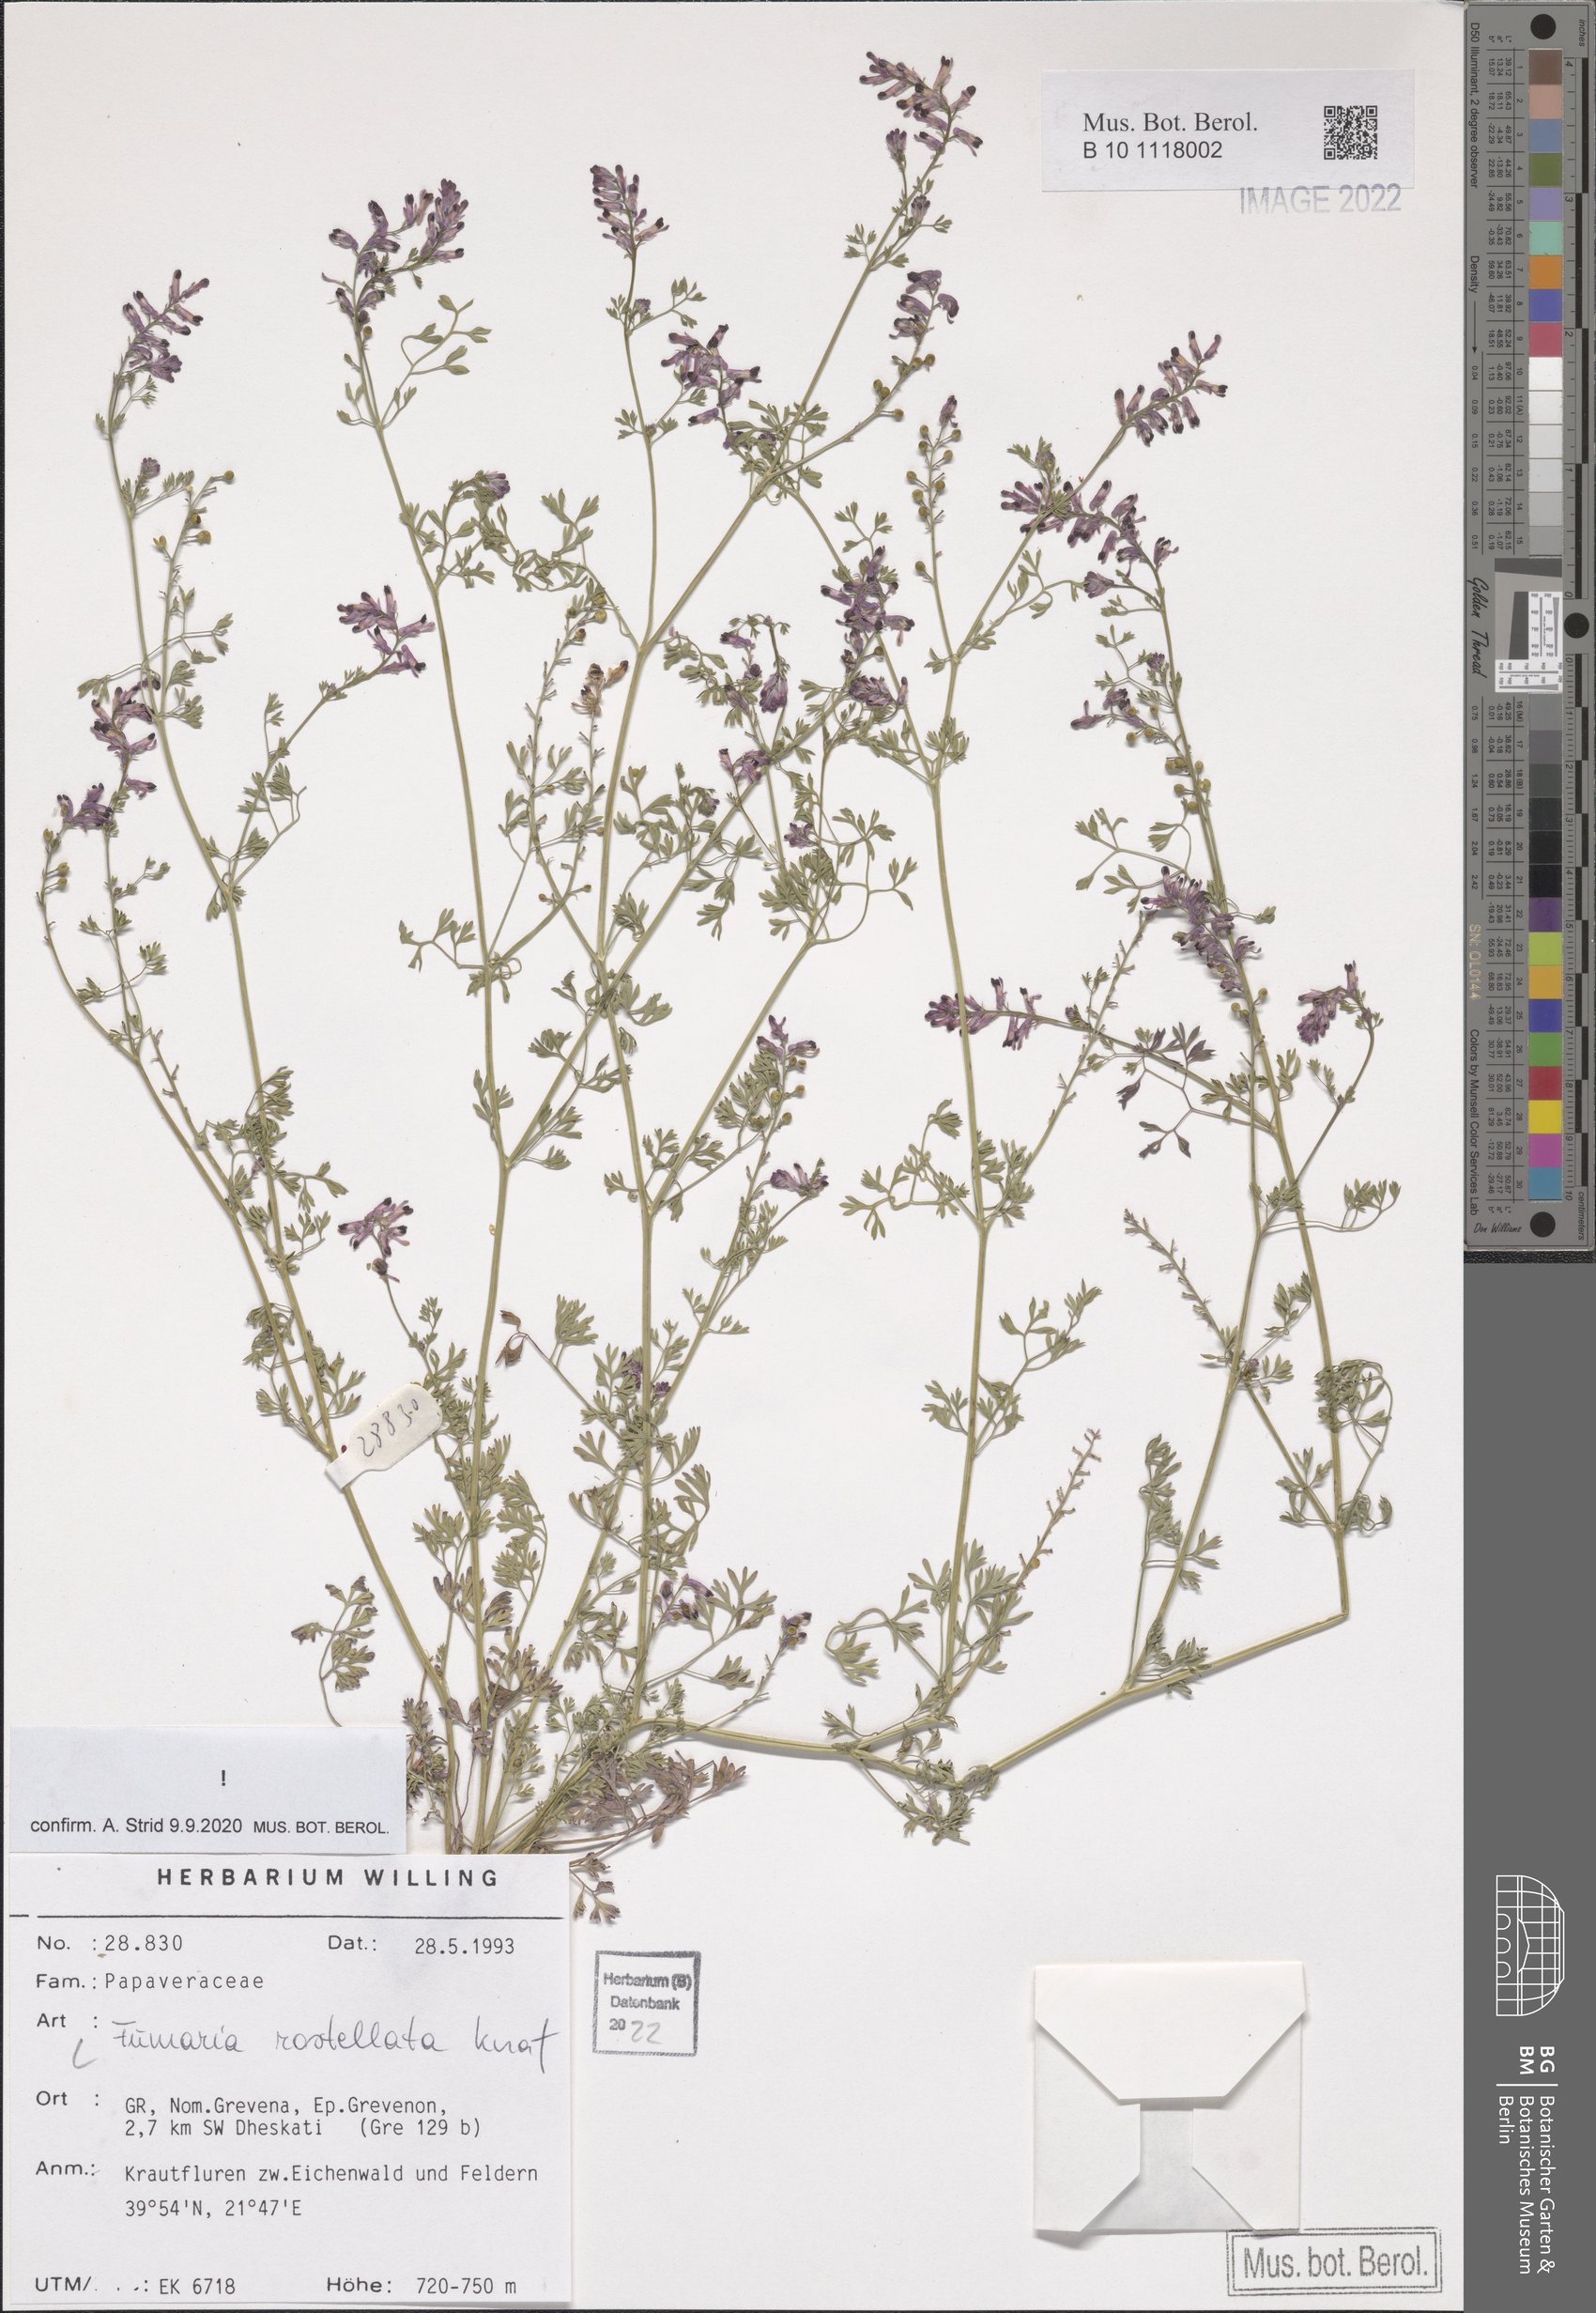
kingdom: Plantae
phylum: Tracheophyta
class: Magnoliopsida
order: Ranunculales
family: Papaveraceae
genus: Fumaria
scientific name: Fumaria rostellata
